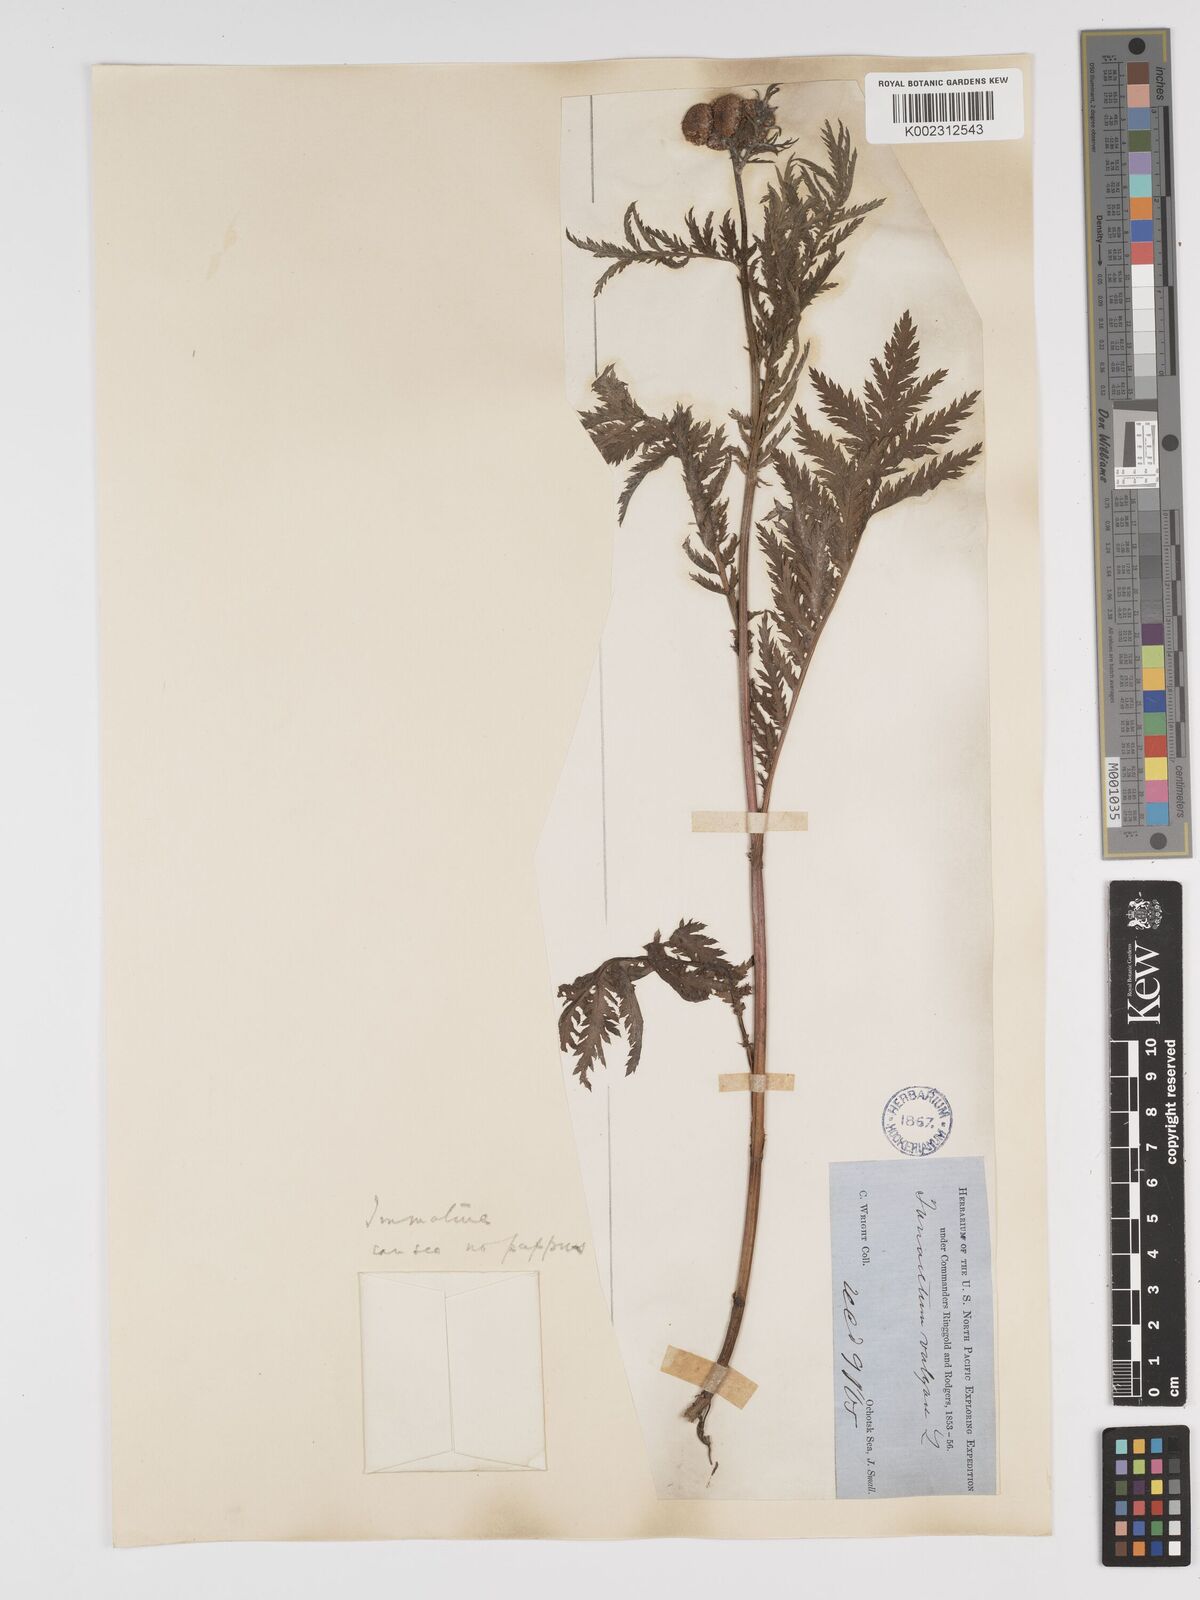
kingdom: Plantae
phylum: Tracheophyta
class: Magnoliopsida
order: Asterales
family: Asteraceae
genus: Tanacetum
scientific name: Tanacetum vulgare
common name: Common tansy
